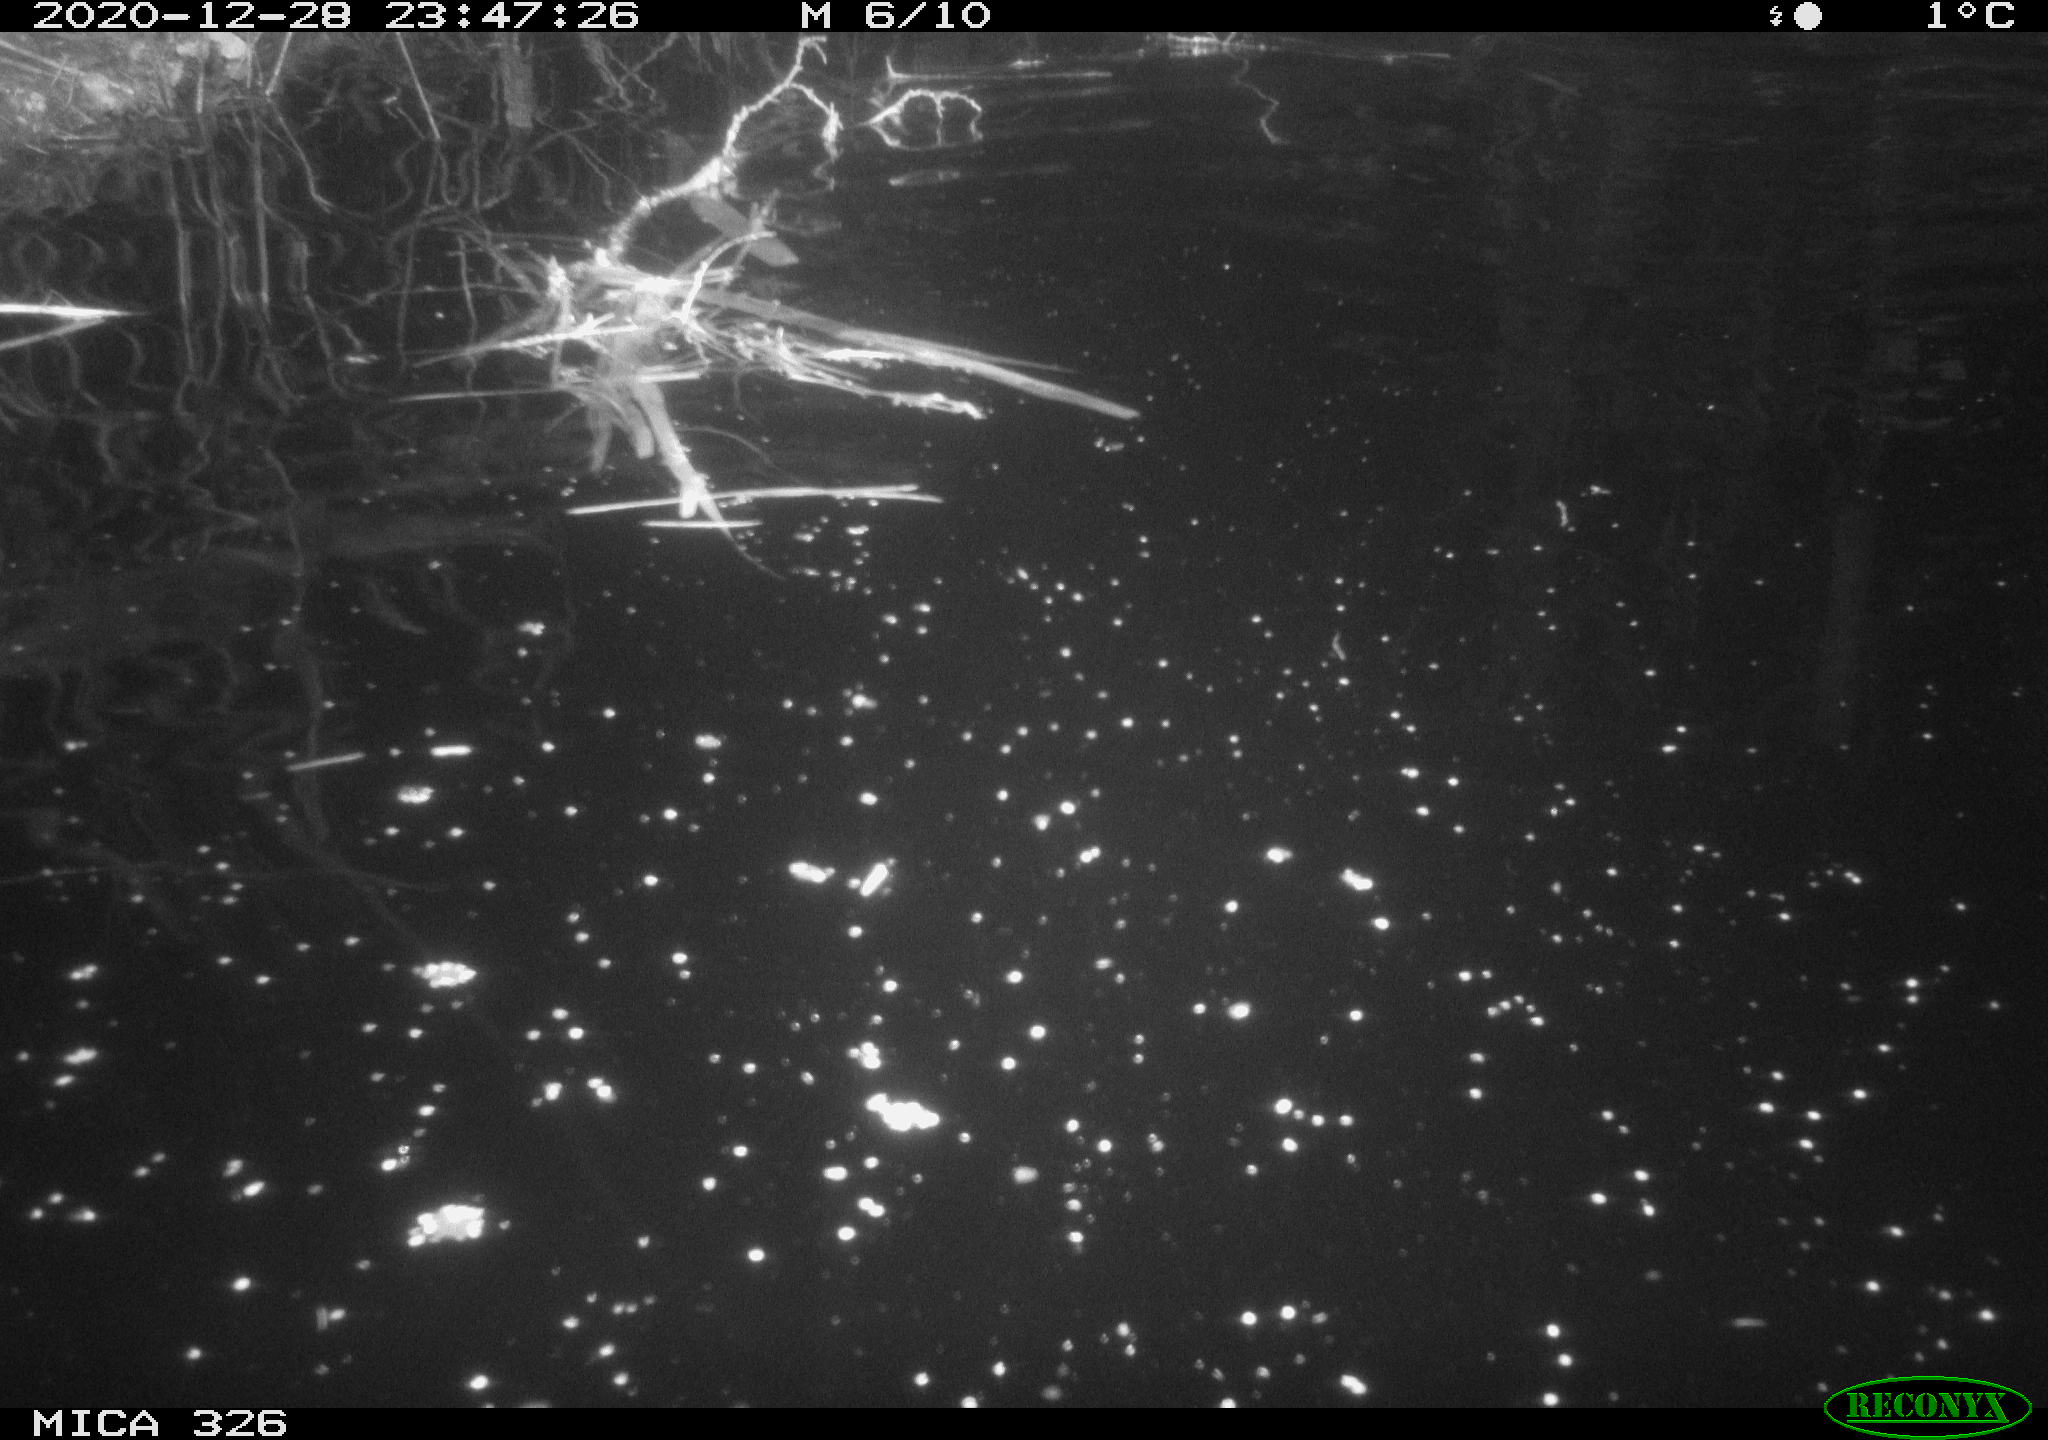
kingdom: Animalia
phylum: Chordata
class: Mammalia
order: Rodentia
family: Cricetidae
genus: Ondatra
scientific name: Ondatra zibethicus
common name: Muskrat
